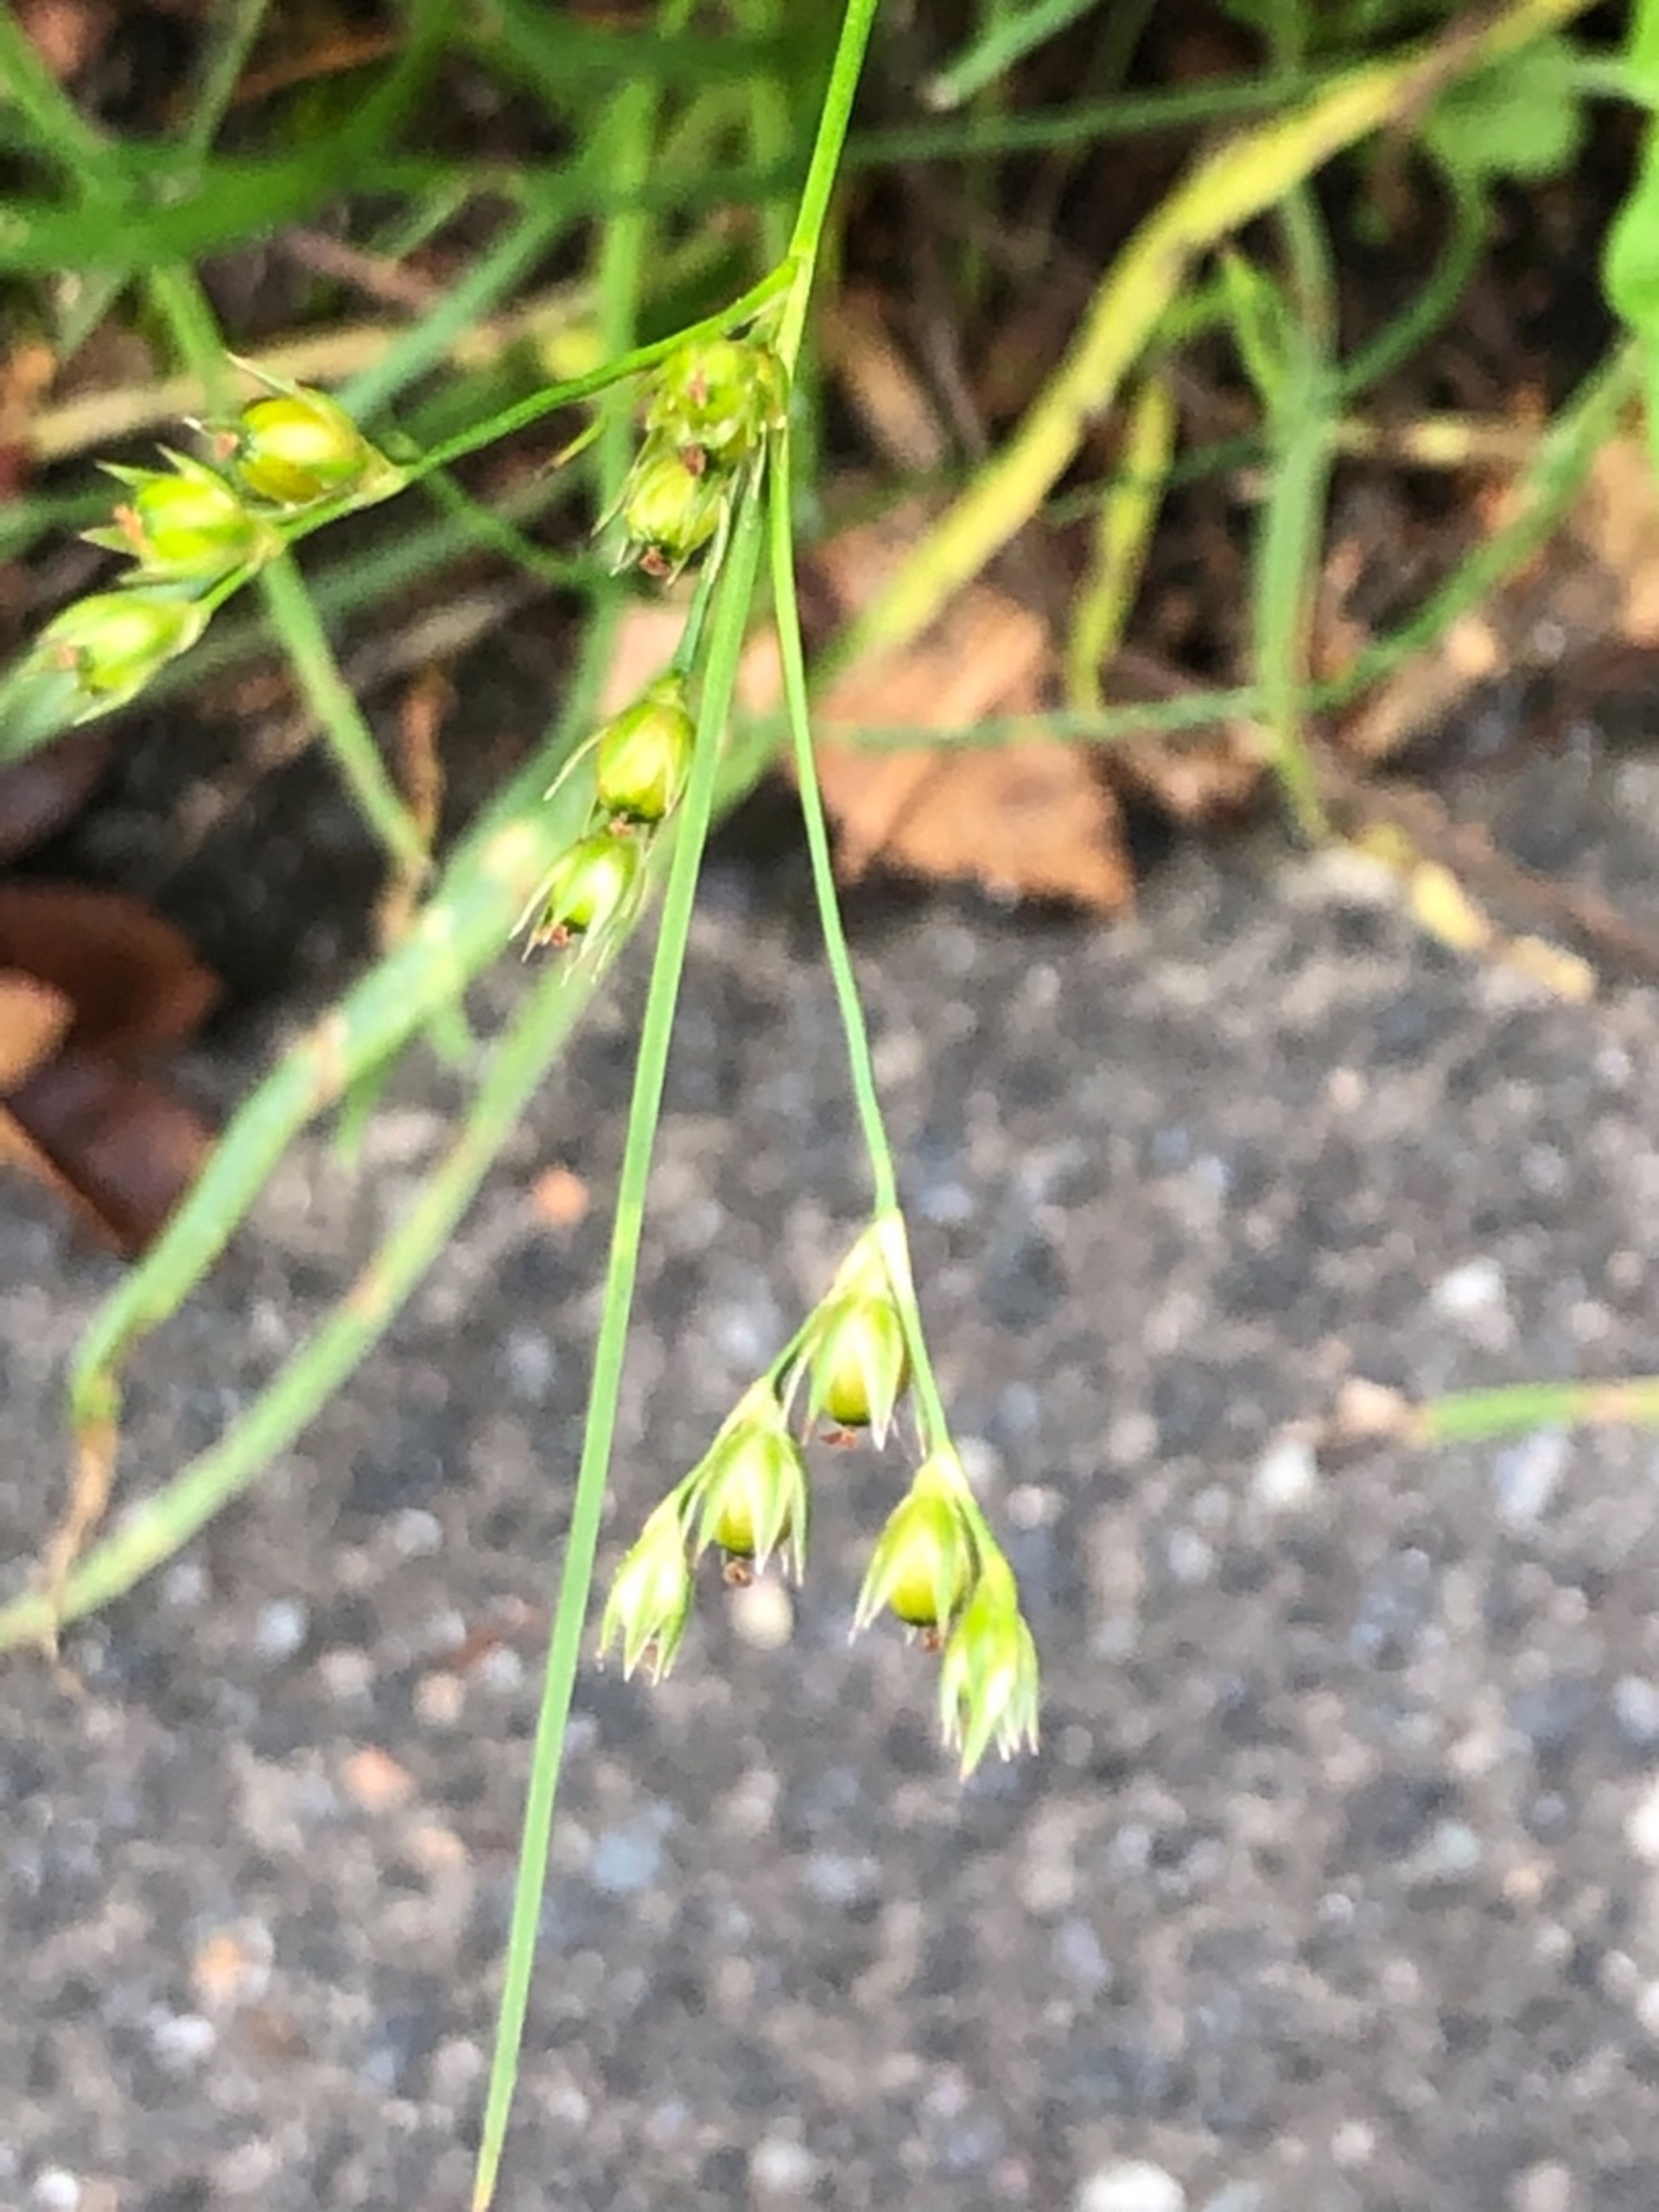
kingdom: Plantae
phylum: Tracheophyta
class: Liliopsida
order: Poales
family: Juncaceae
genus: Juncus
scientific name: Juncus tenuis
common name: Tue-siv
